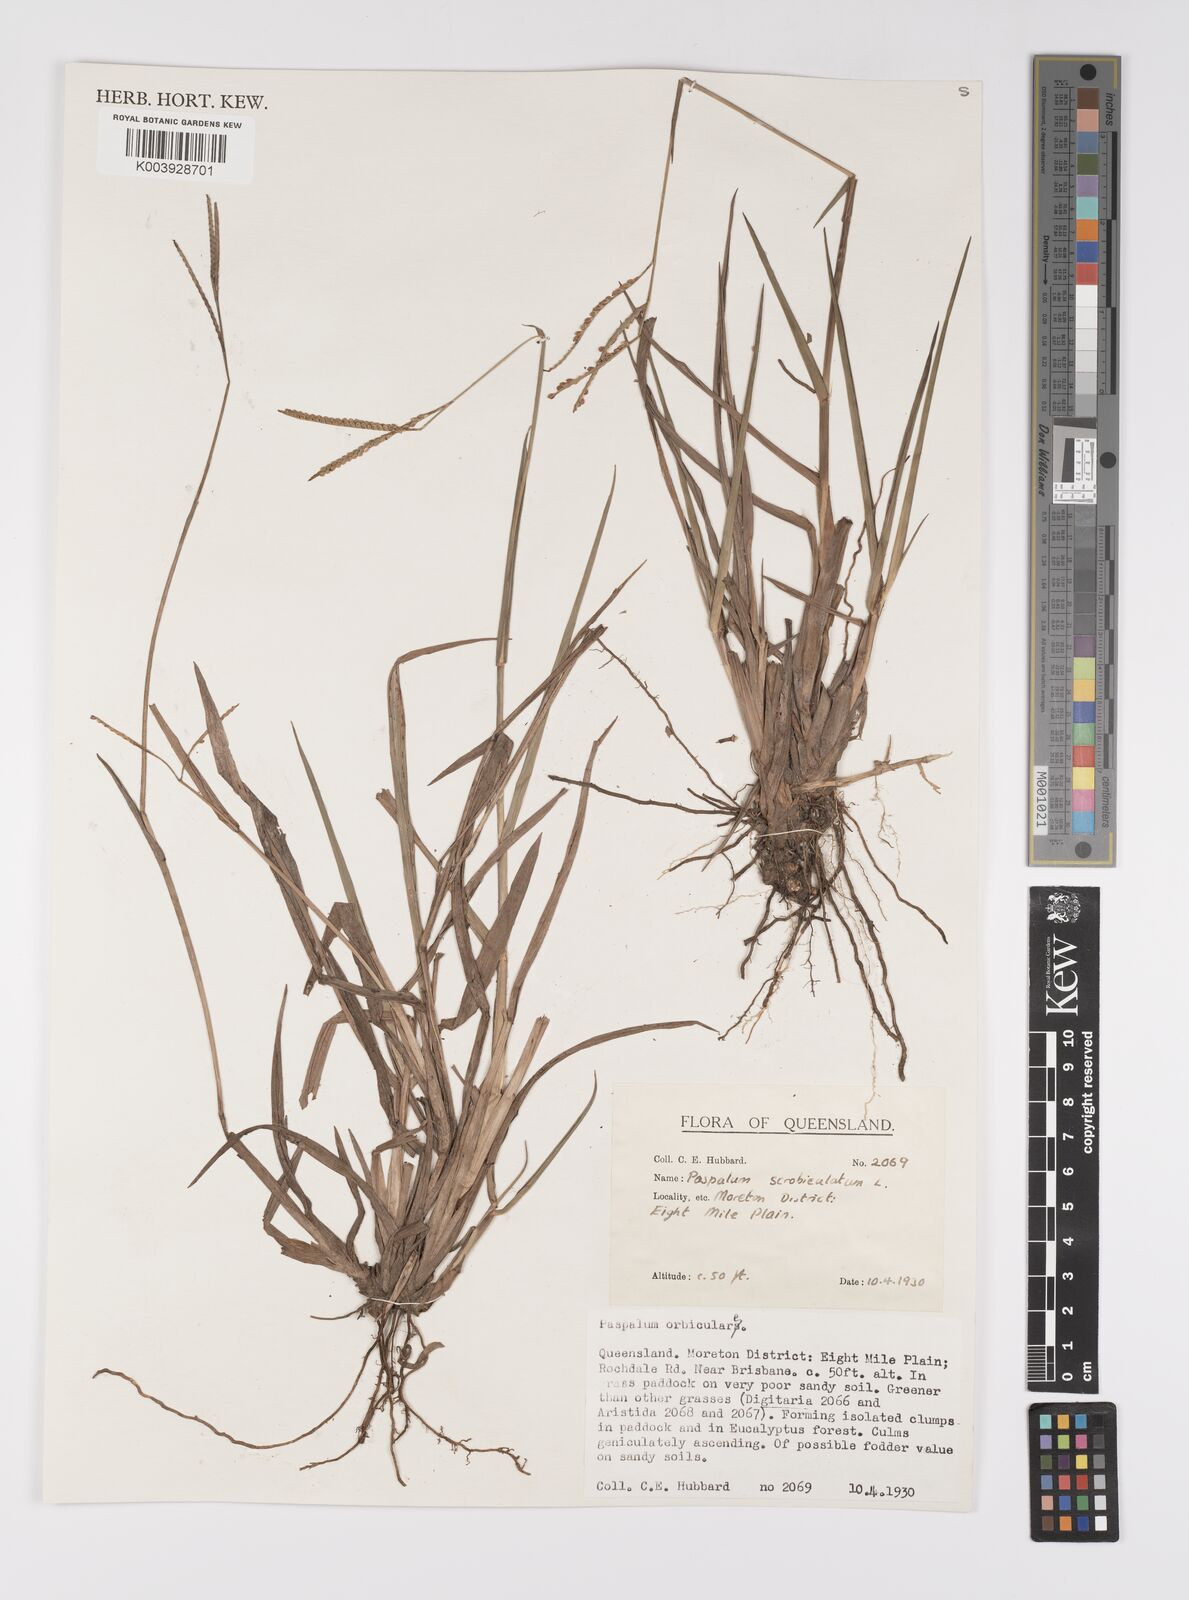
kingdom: Plantae
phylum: Tracheophyta
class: Liliopsida
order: Poales
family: Poaceae
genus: Paspalum
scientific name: Paspalum scrobiculatum
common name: Kodo millet
